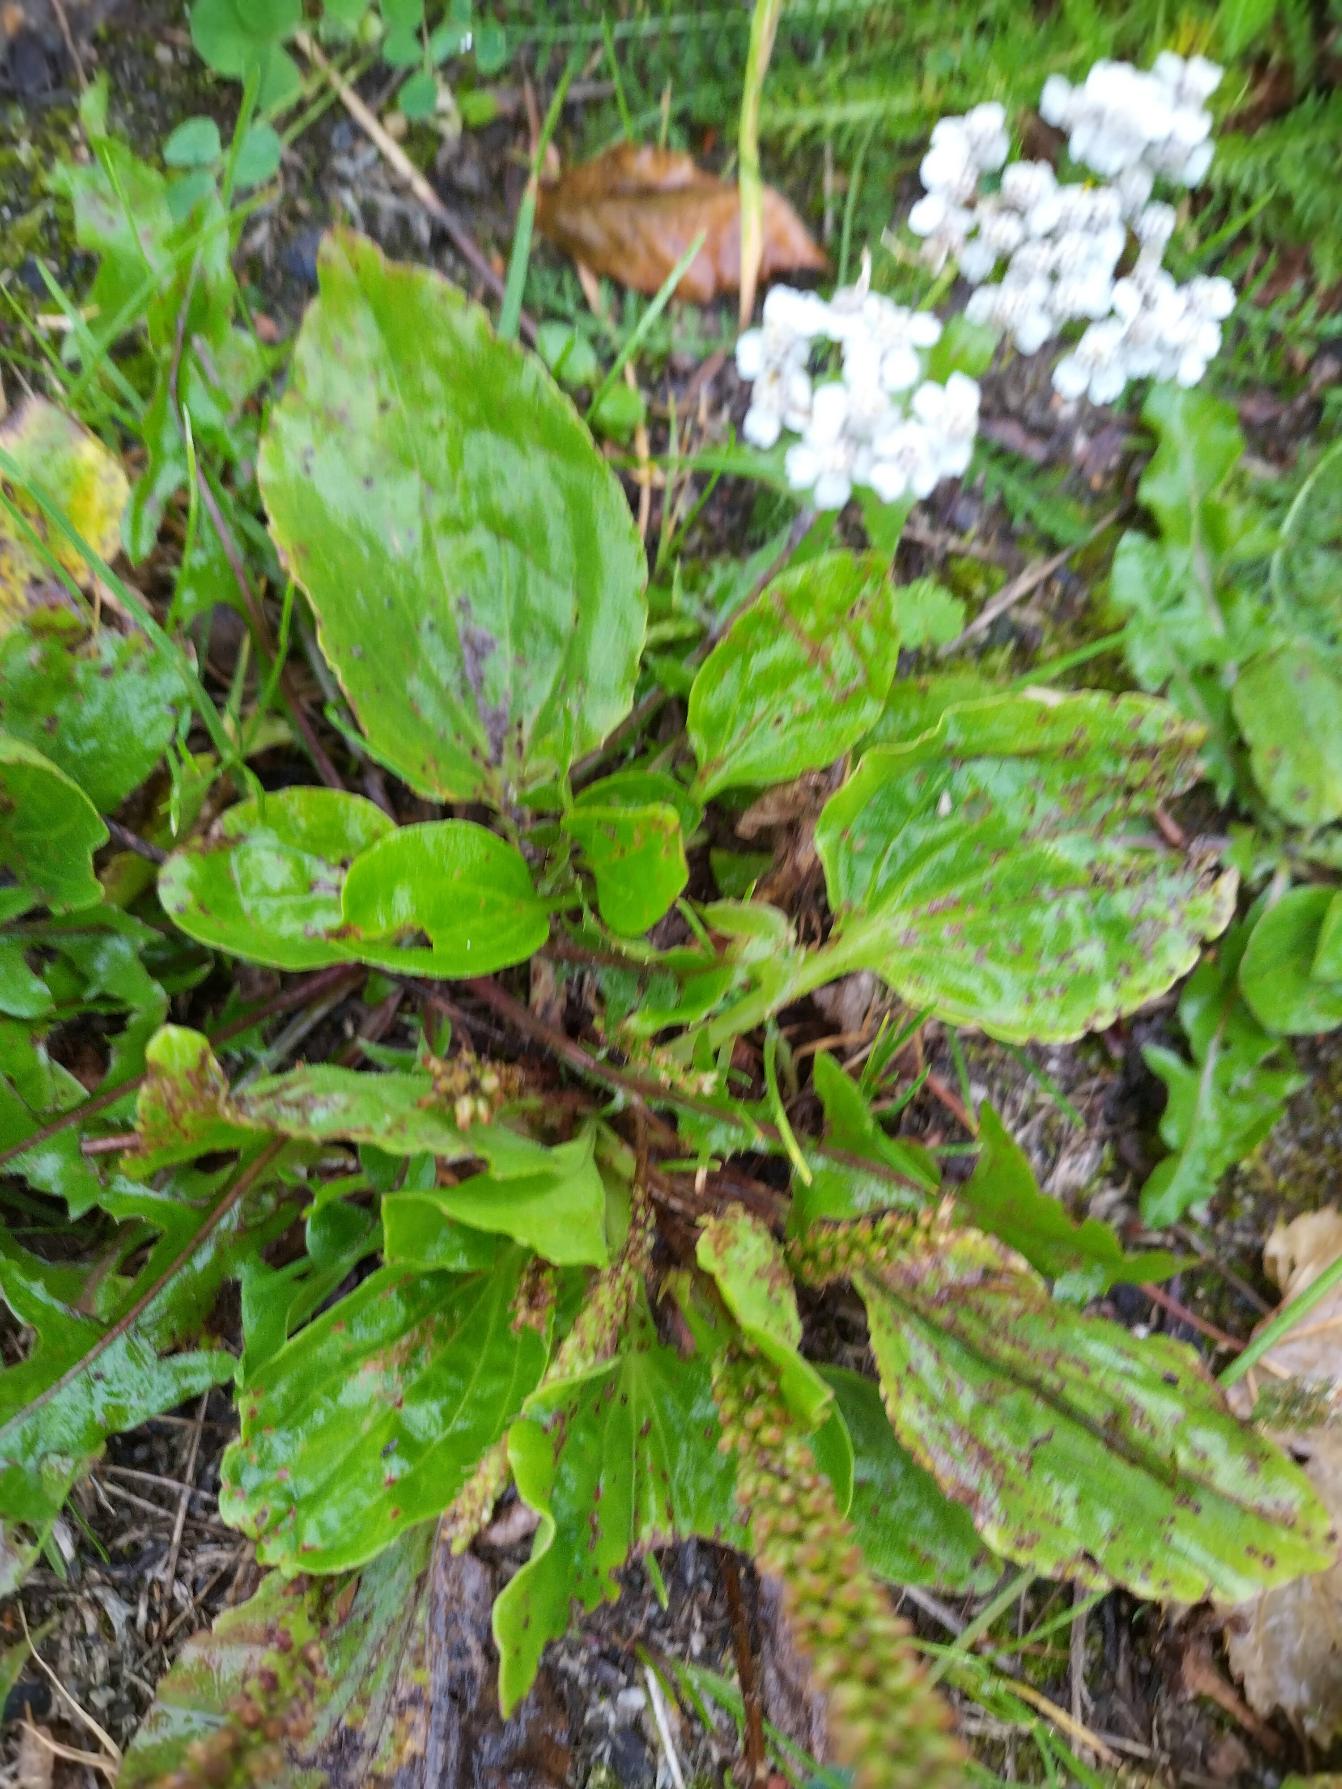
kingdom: Plantae
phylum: Tracheophyta
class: Magnoliopsida
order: Lamiales
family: Plantaginaceae
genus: Plantago
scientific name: Plantago major
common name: Glat vejbred
